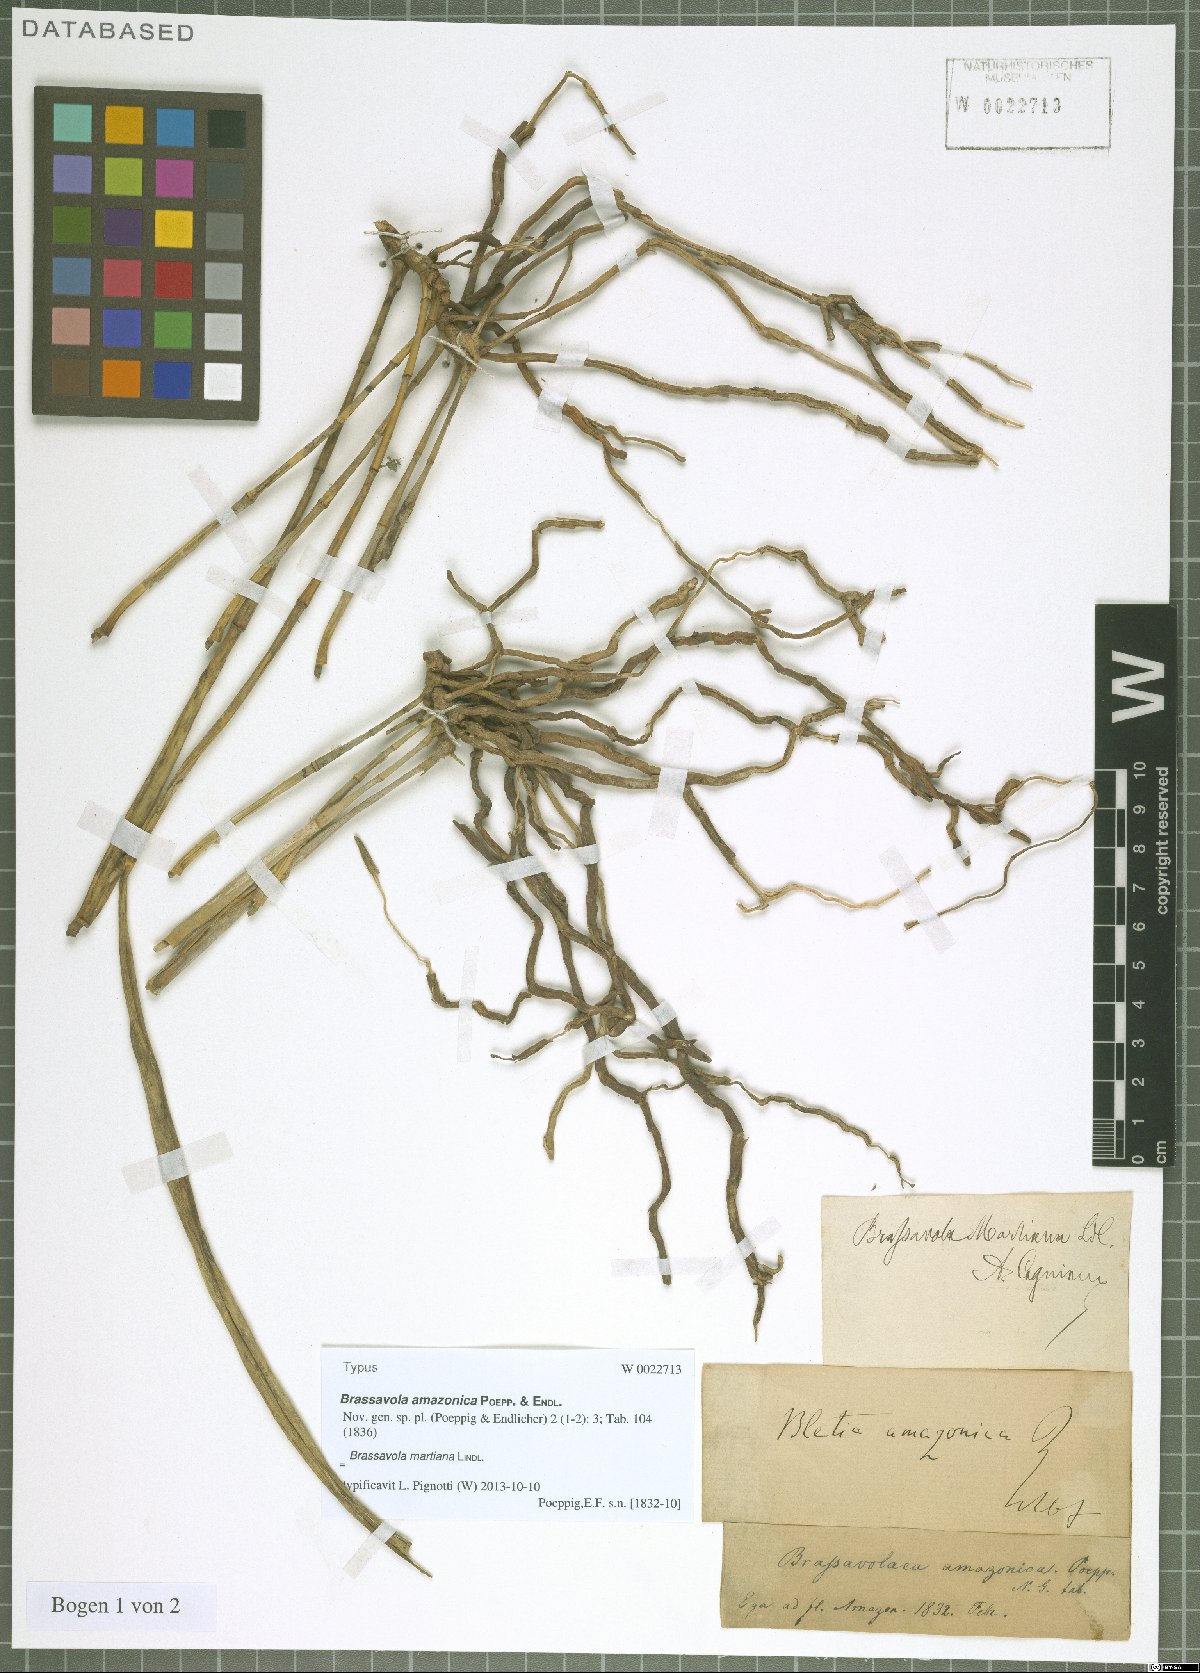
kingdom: Plantae
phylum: Tracheophyta
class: Liliopsida
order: Asparagales
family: Orchidaceae
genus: Brassavola
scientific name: Brassavola martiana
